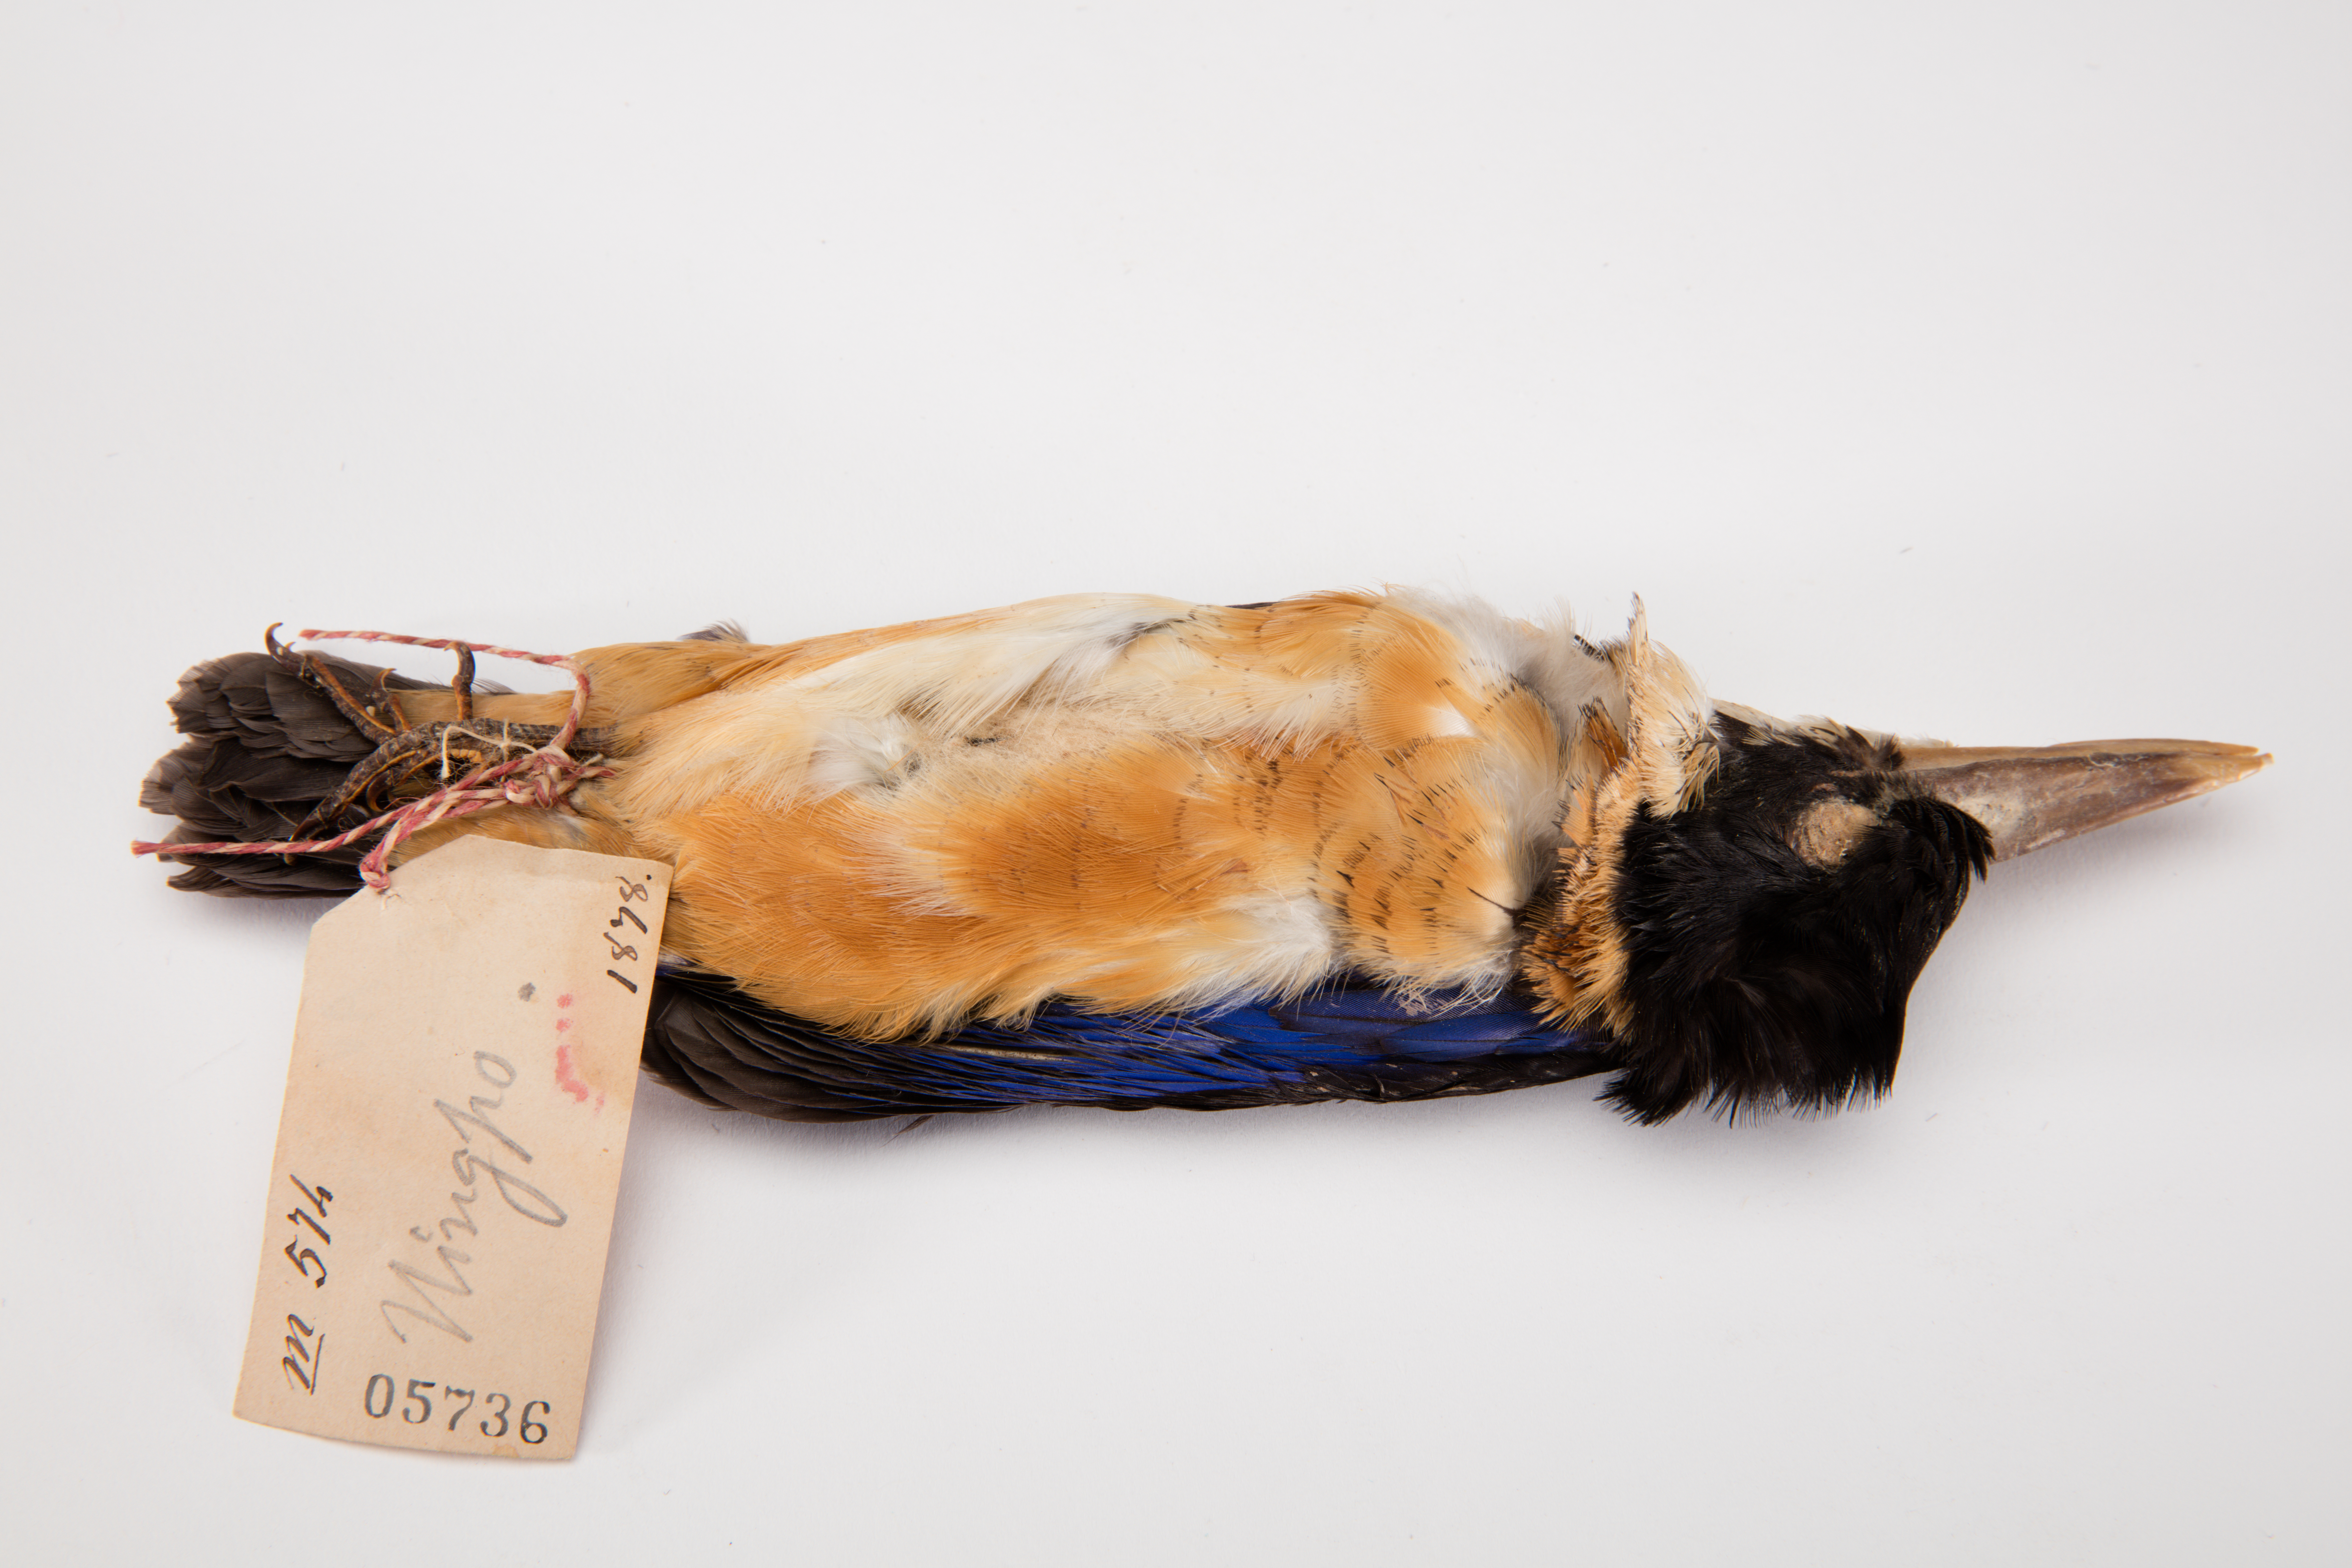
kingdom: Animalia
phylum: Chordata
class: Aves
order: Coraciiformes
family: Alcedinidae
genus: Halcyon
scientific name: Halcyon coromanda
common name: Ruddy kingfisher
